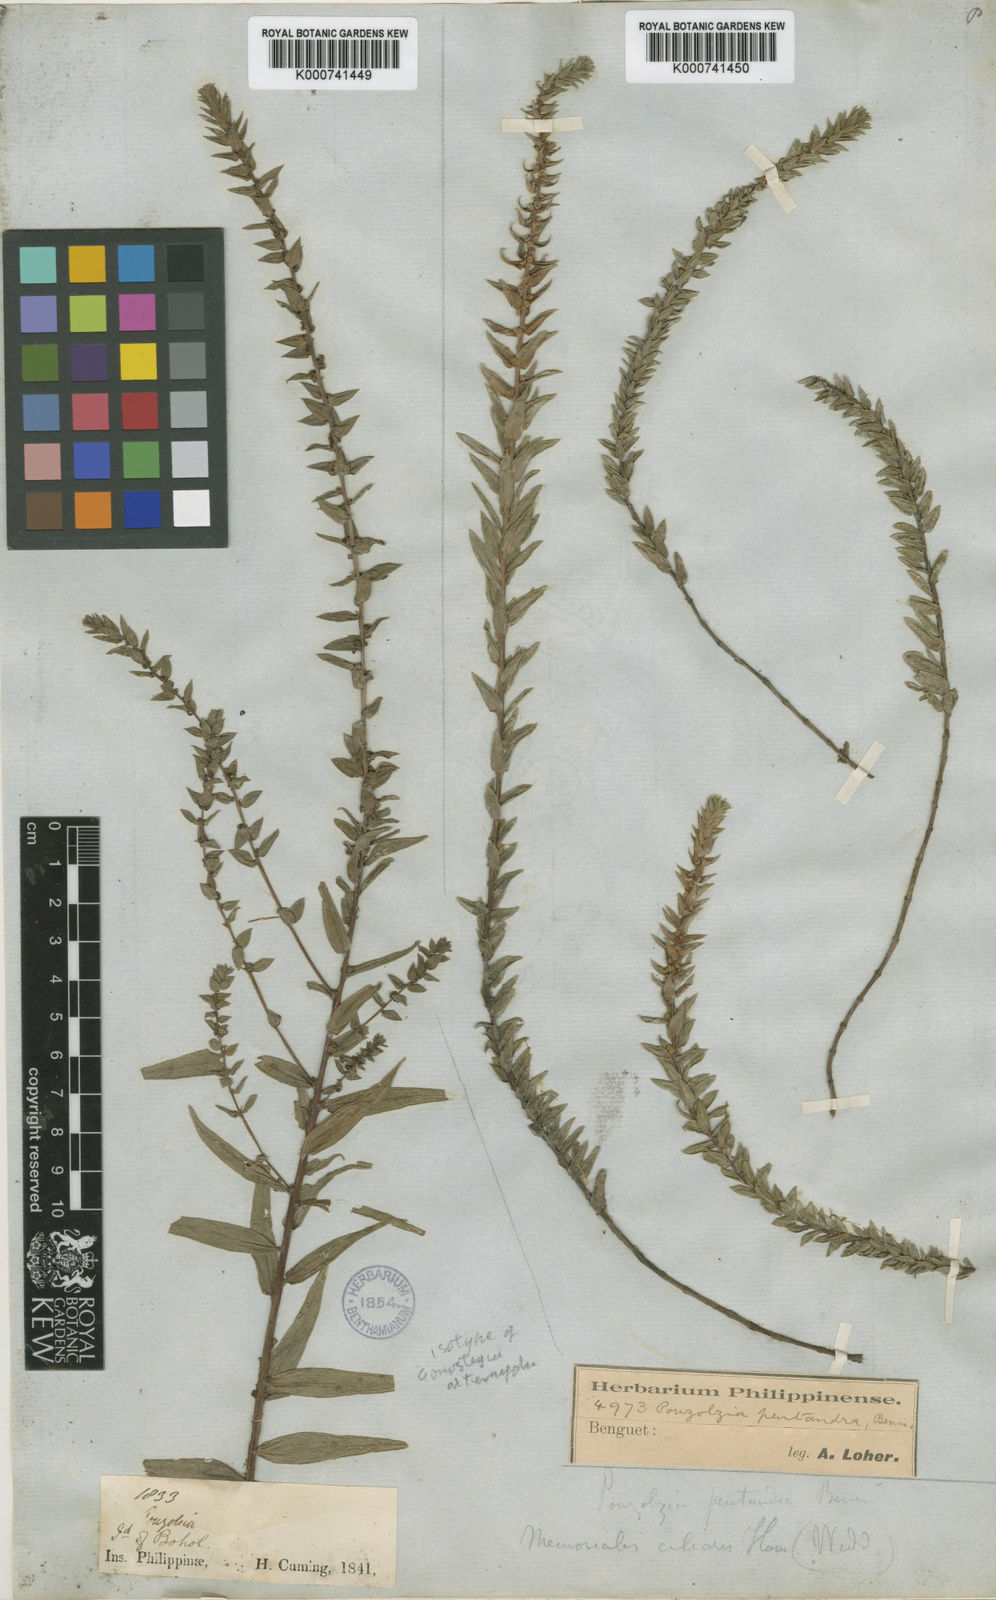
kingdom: Plantae
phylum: Tracheophyta
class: Magnoliopsida
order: Rosales
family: Urticaceae
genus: Gonostegia
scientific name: Gonostegia pentandra
